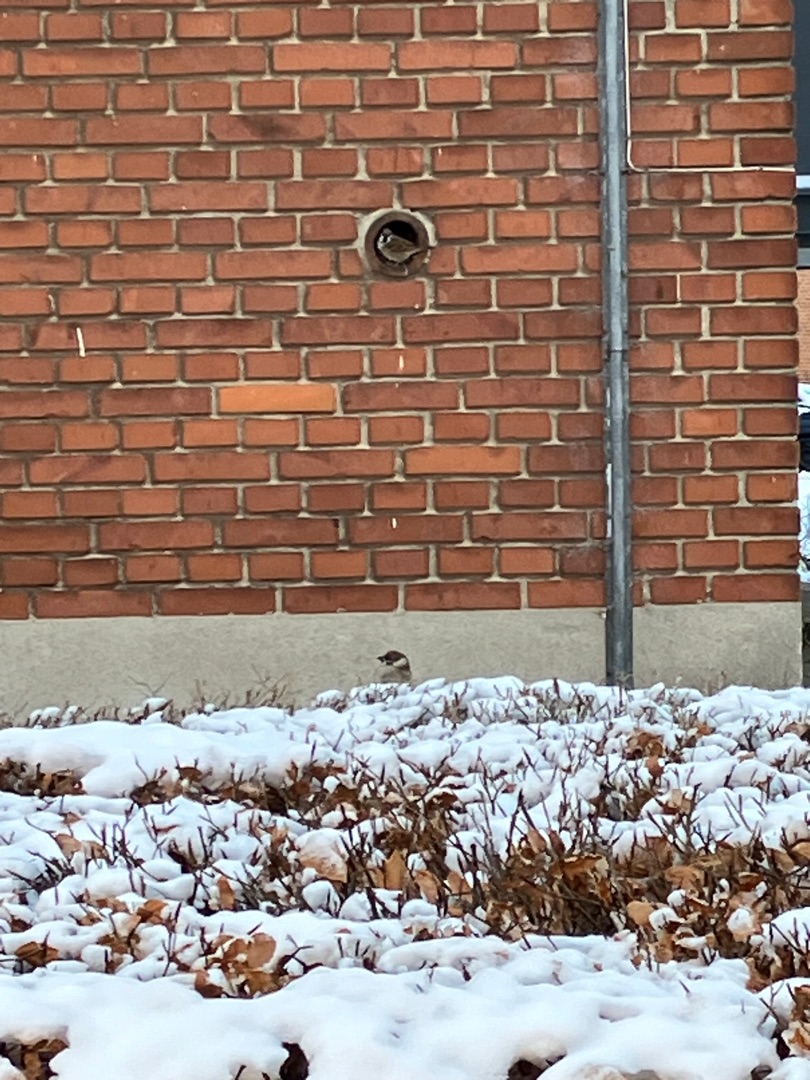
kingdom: Animalia
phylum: Chordata
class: Aves
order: Passeriformes
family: Passeridae
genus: Passer
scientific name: Passer domesticus
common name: Gråspurv
